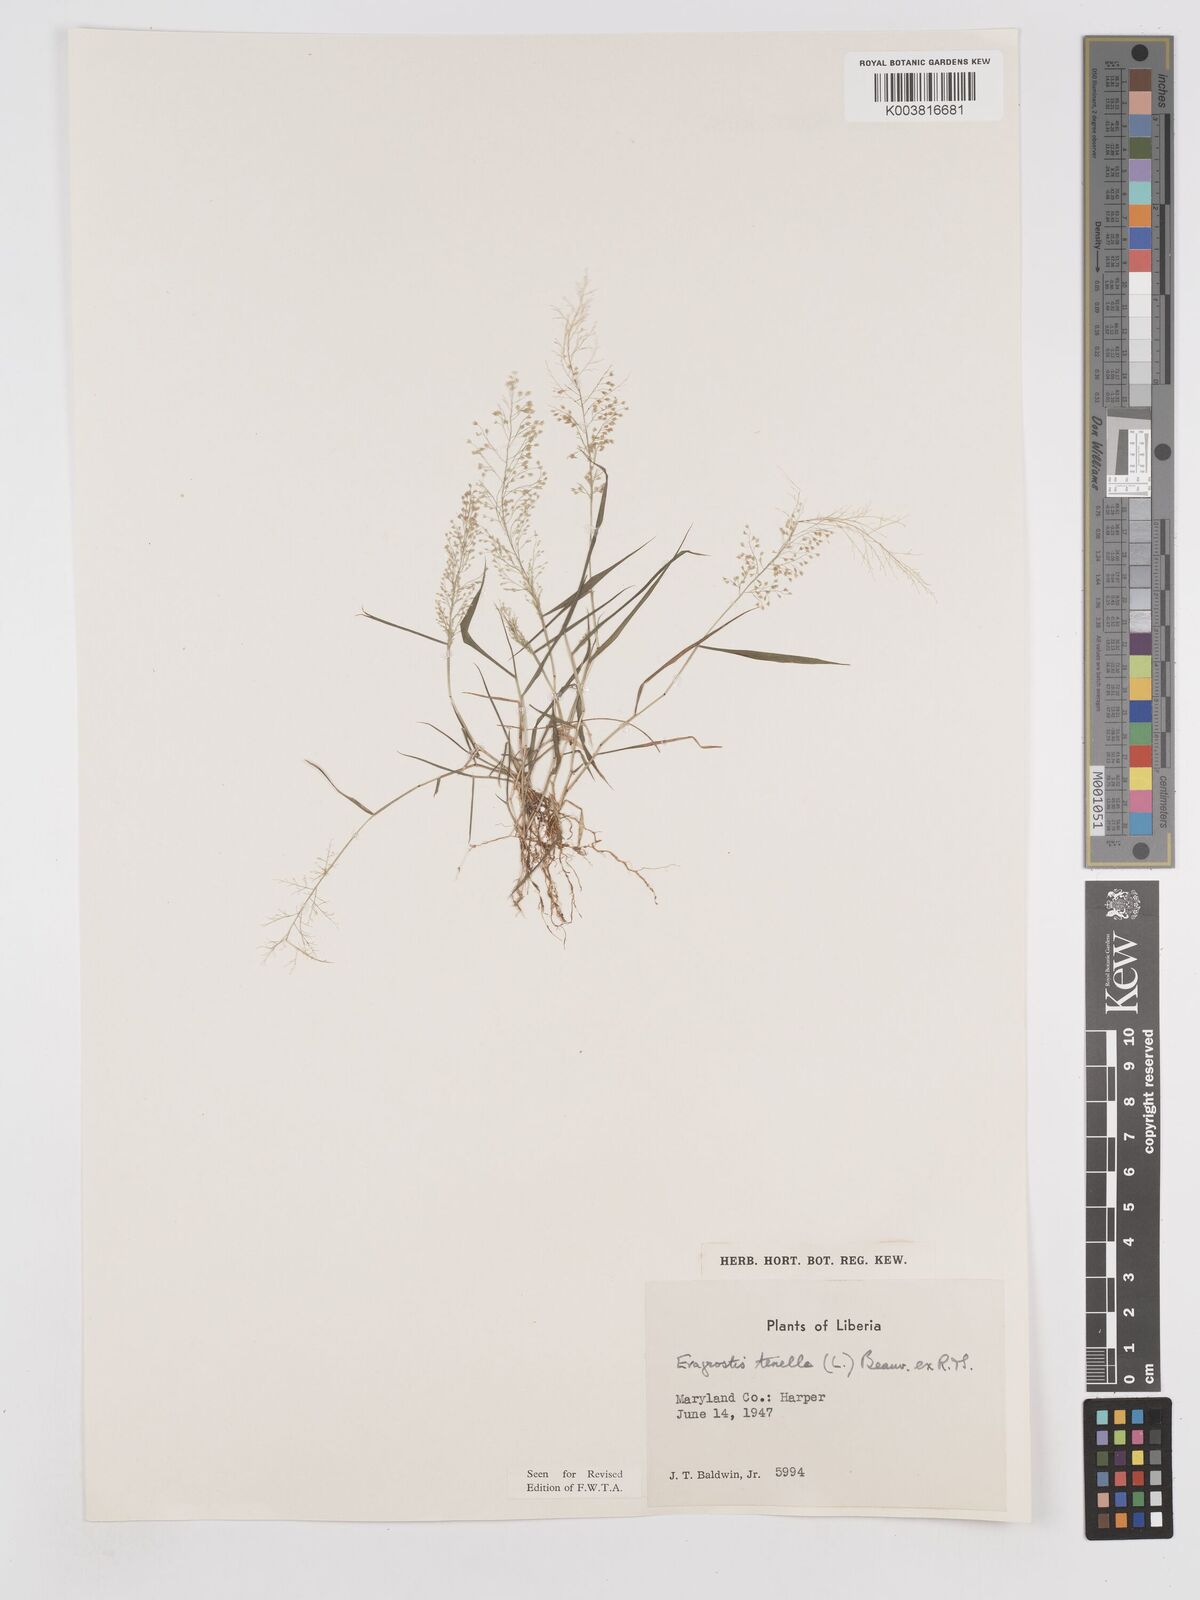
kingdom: Plantae
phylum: Tracheophyta
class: Liliopsida
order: Poales
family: Poaceae
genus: Eragrostis
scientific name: Eragrostis tenella
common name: Japanese lovegrass
